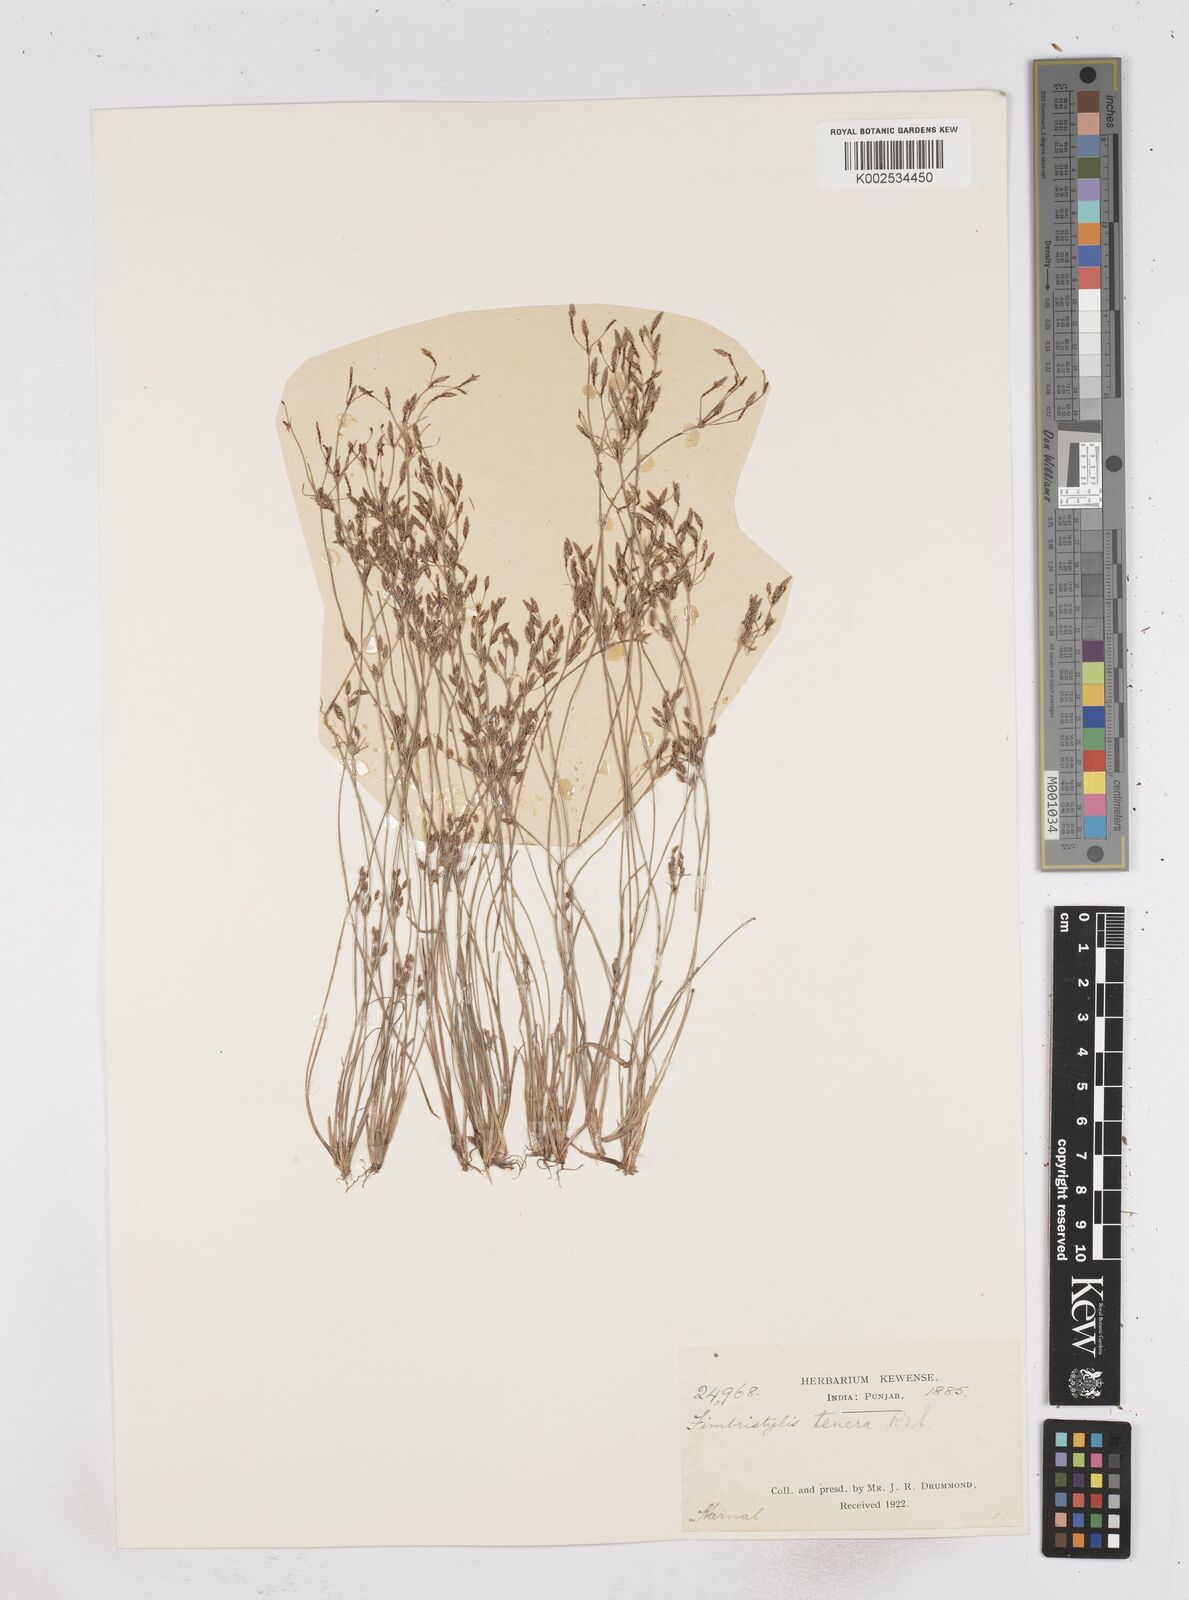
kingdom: Plantae
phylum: Tracheophyta
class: Liliopsida
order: Poales
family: Cyperaceae
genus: Fimbristylis
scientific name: Fimbristylis tenera
